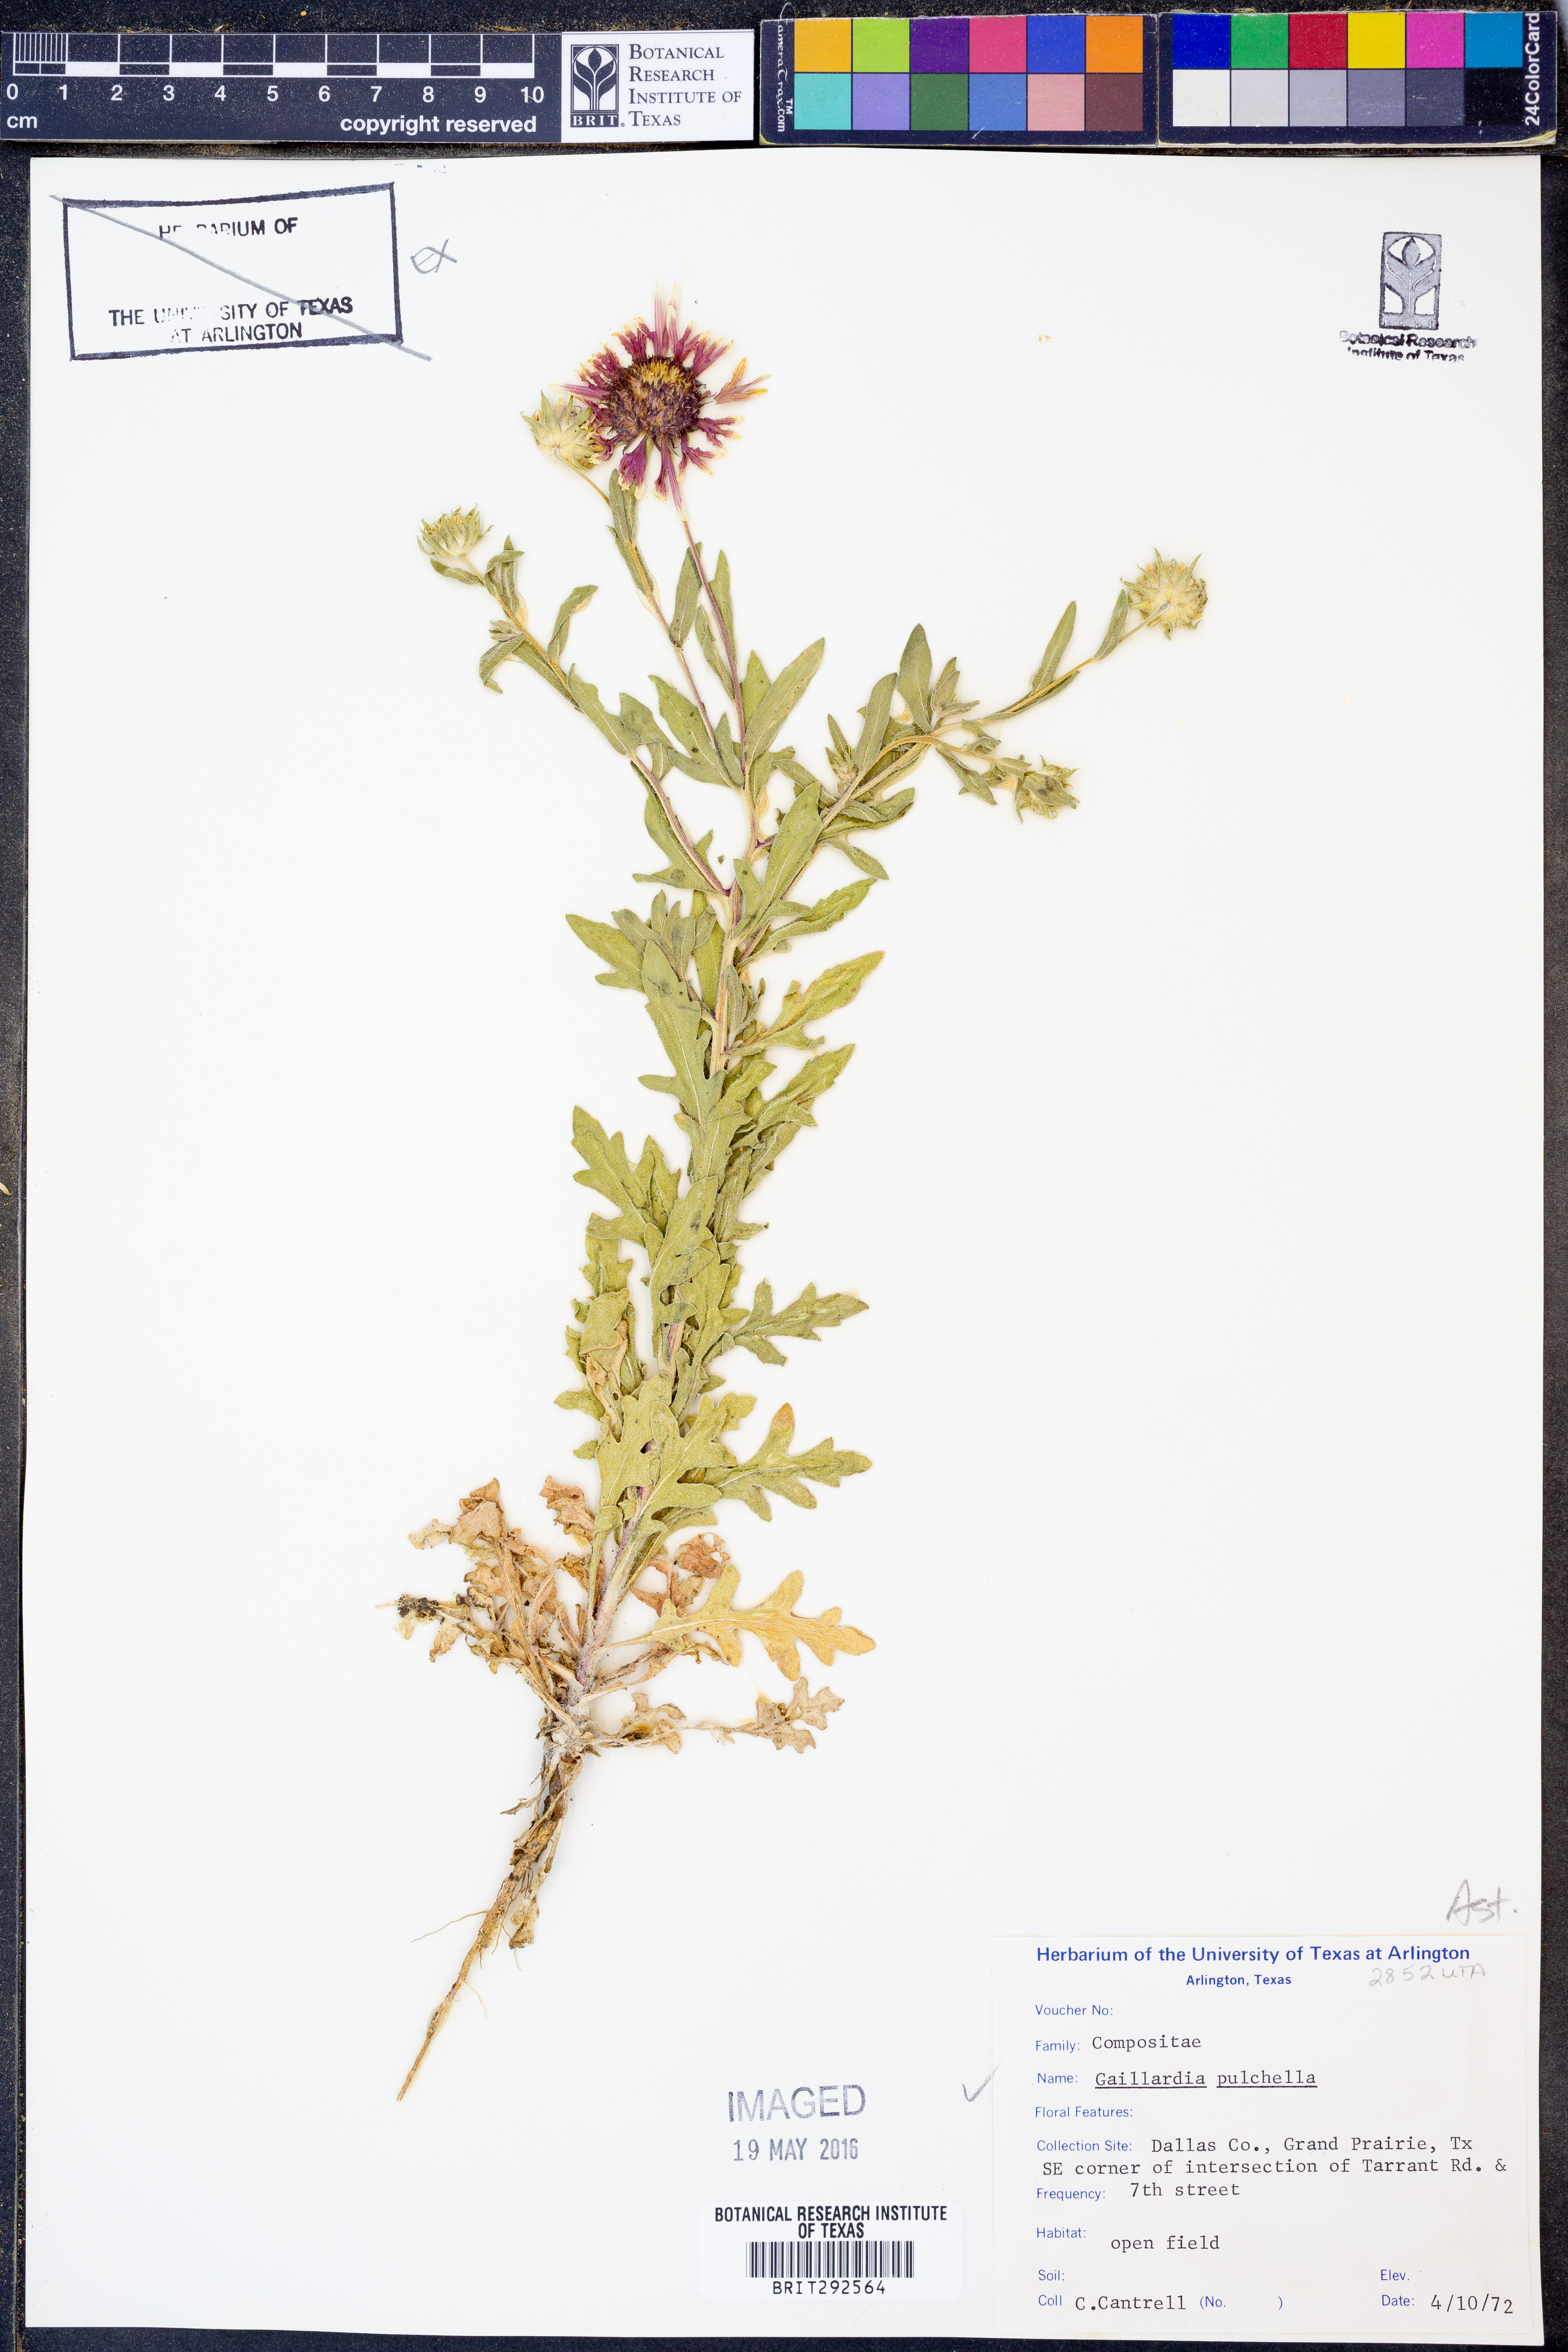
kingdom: Plantae
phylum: Tracheophyta
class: Magnoliopsida
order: Asterales
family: Asteraceae
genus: Gaillardia
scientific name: Gaillardia pulchella
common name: Firewheel
